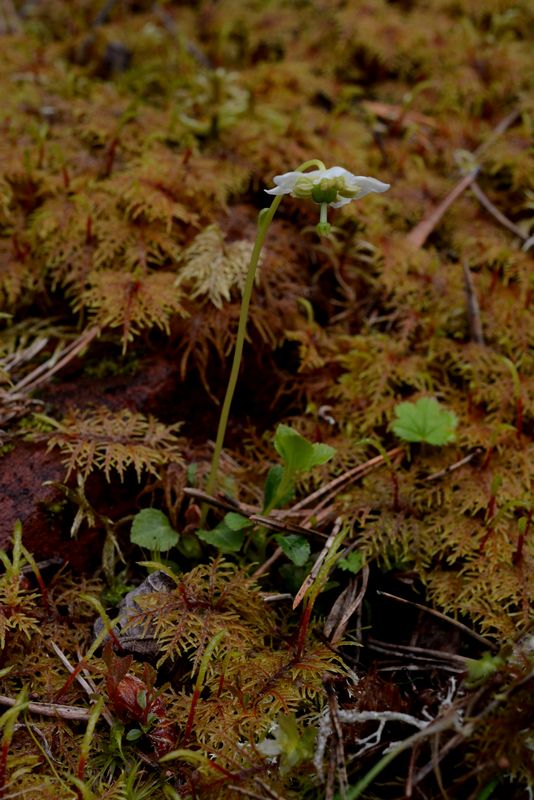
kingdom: Plantae
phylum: Tracheophyta
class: Magnoliopsida
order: Ericales
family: Ericaceae
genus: Moneses
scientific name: Moneses uniflora
